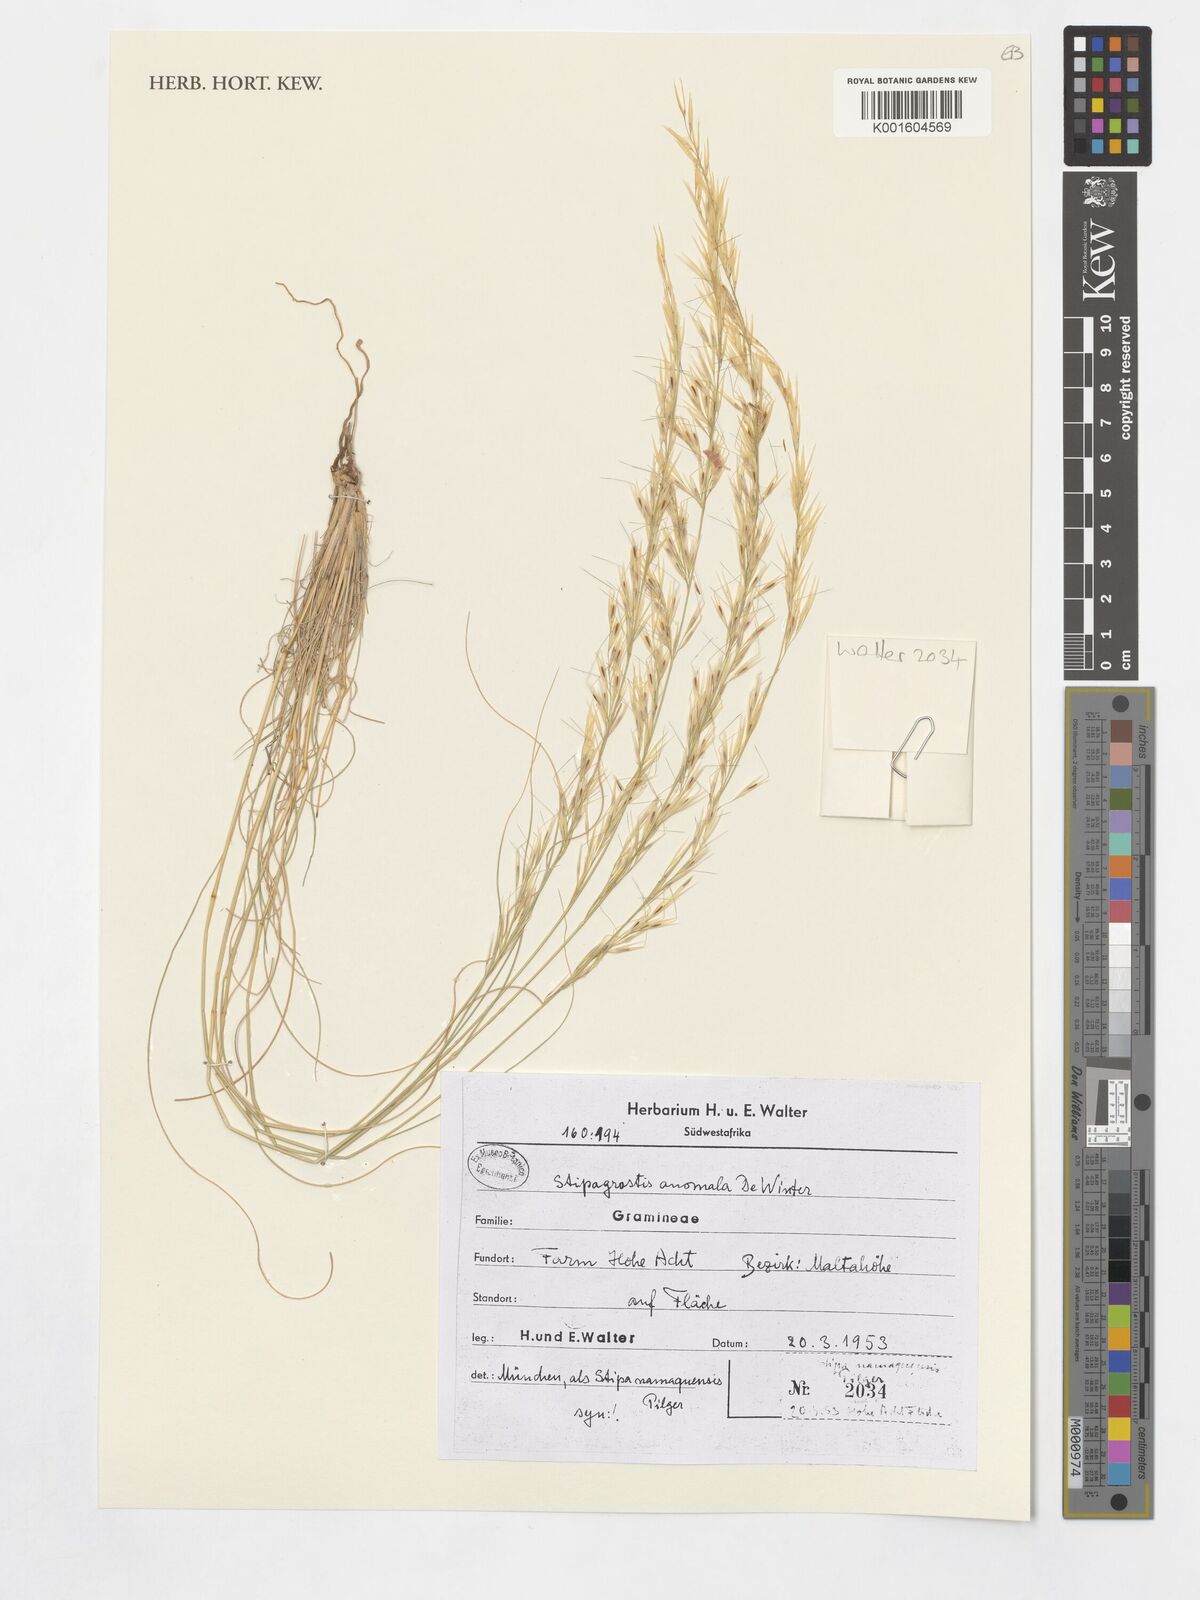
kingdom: Plantae
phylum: Tracheophyta
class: Liliopsida
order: Poales
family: Poaceae
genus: Stipagrostis
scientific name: Stipagrostis anomala
